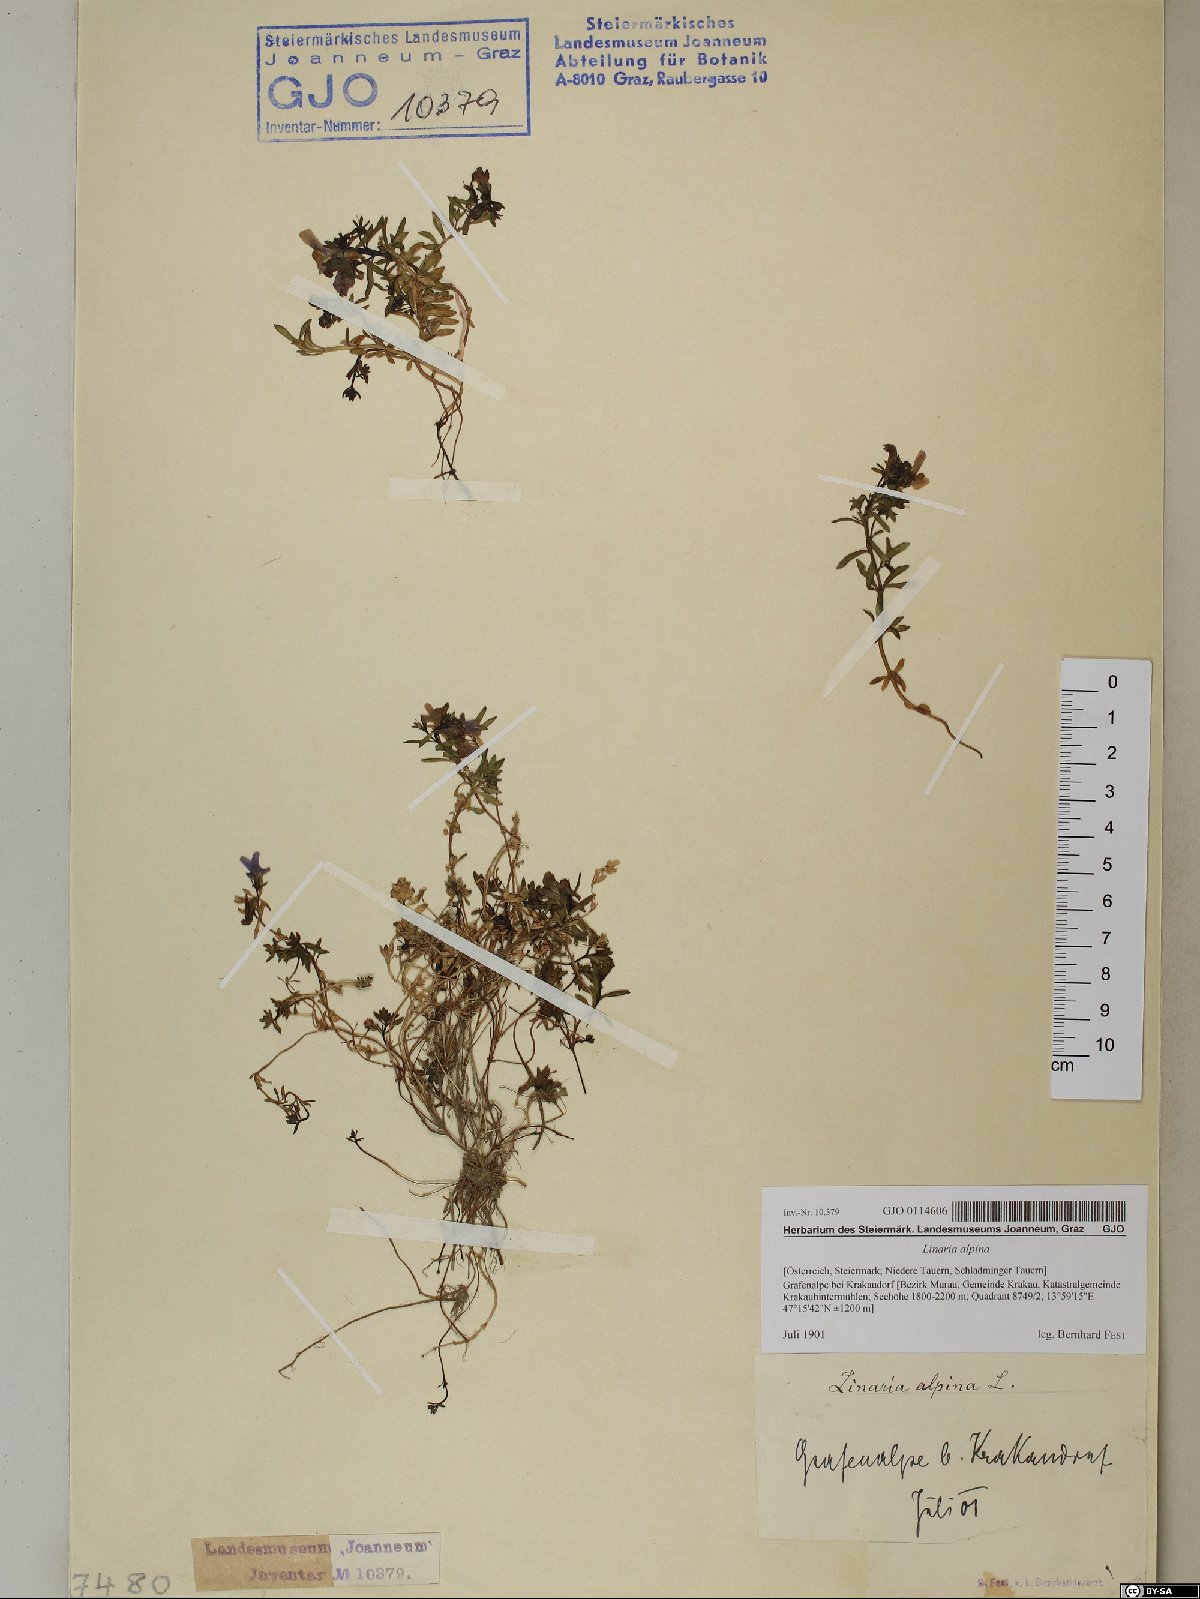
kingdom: Plantae
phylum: Tracheophyta
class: Magnoliopsida
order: Lamiales
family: Plantaginaceae
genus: Linaria
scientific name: Linaria alpina
